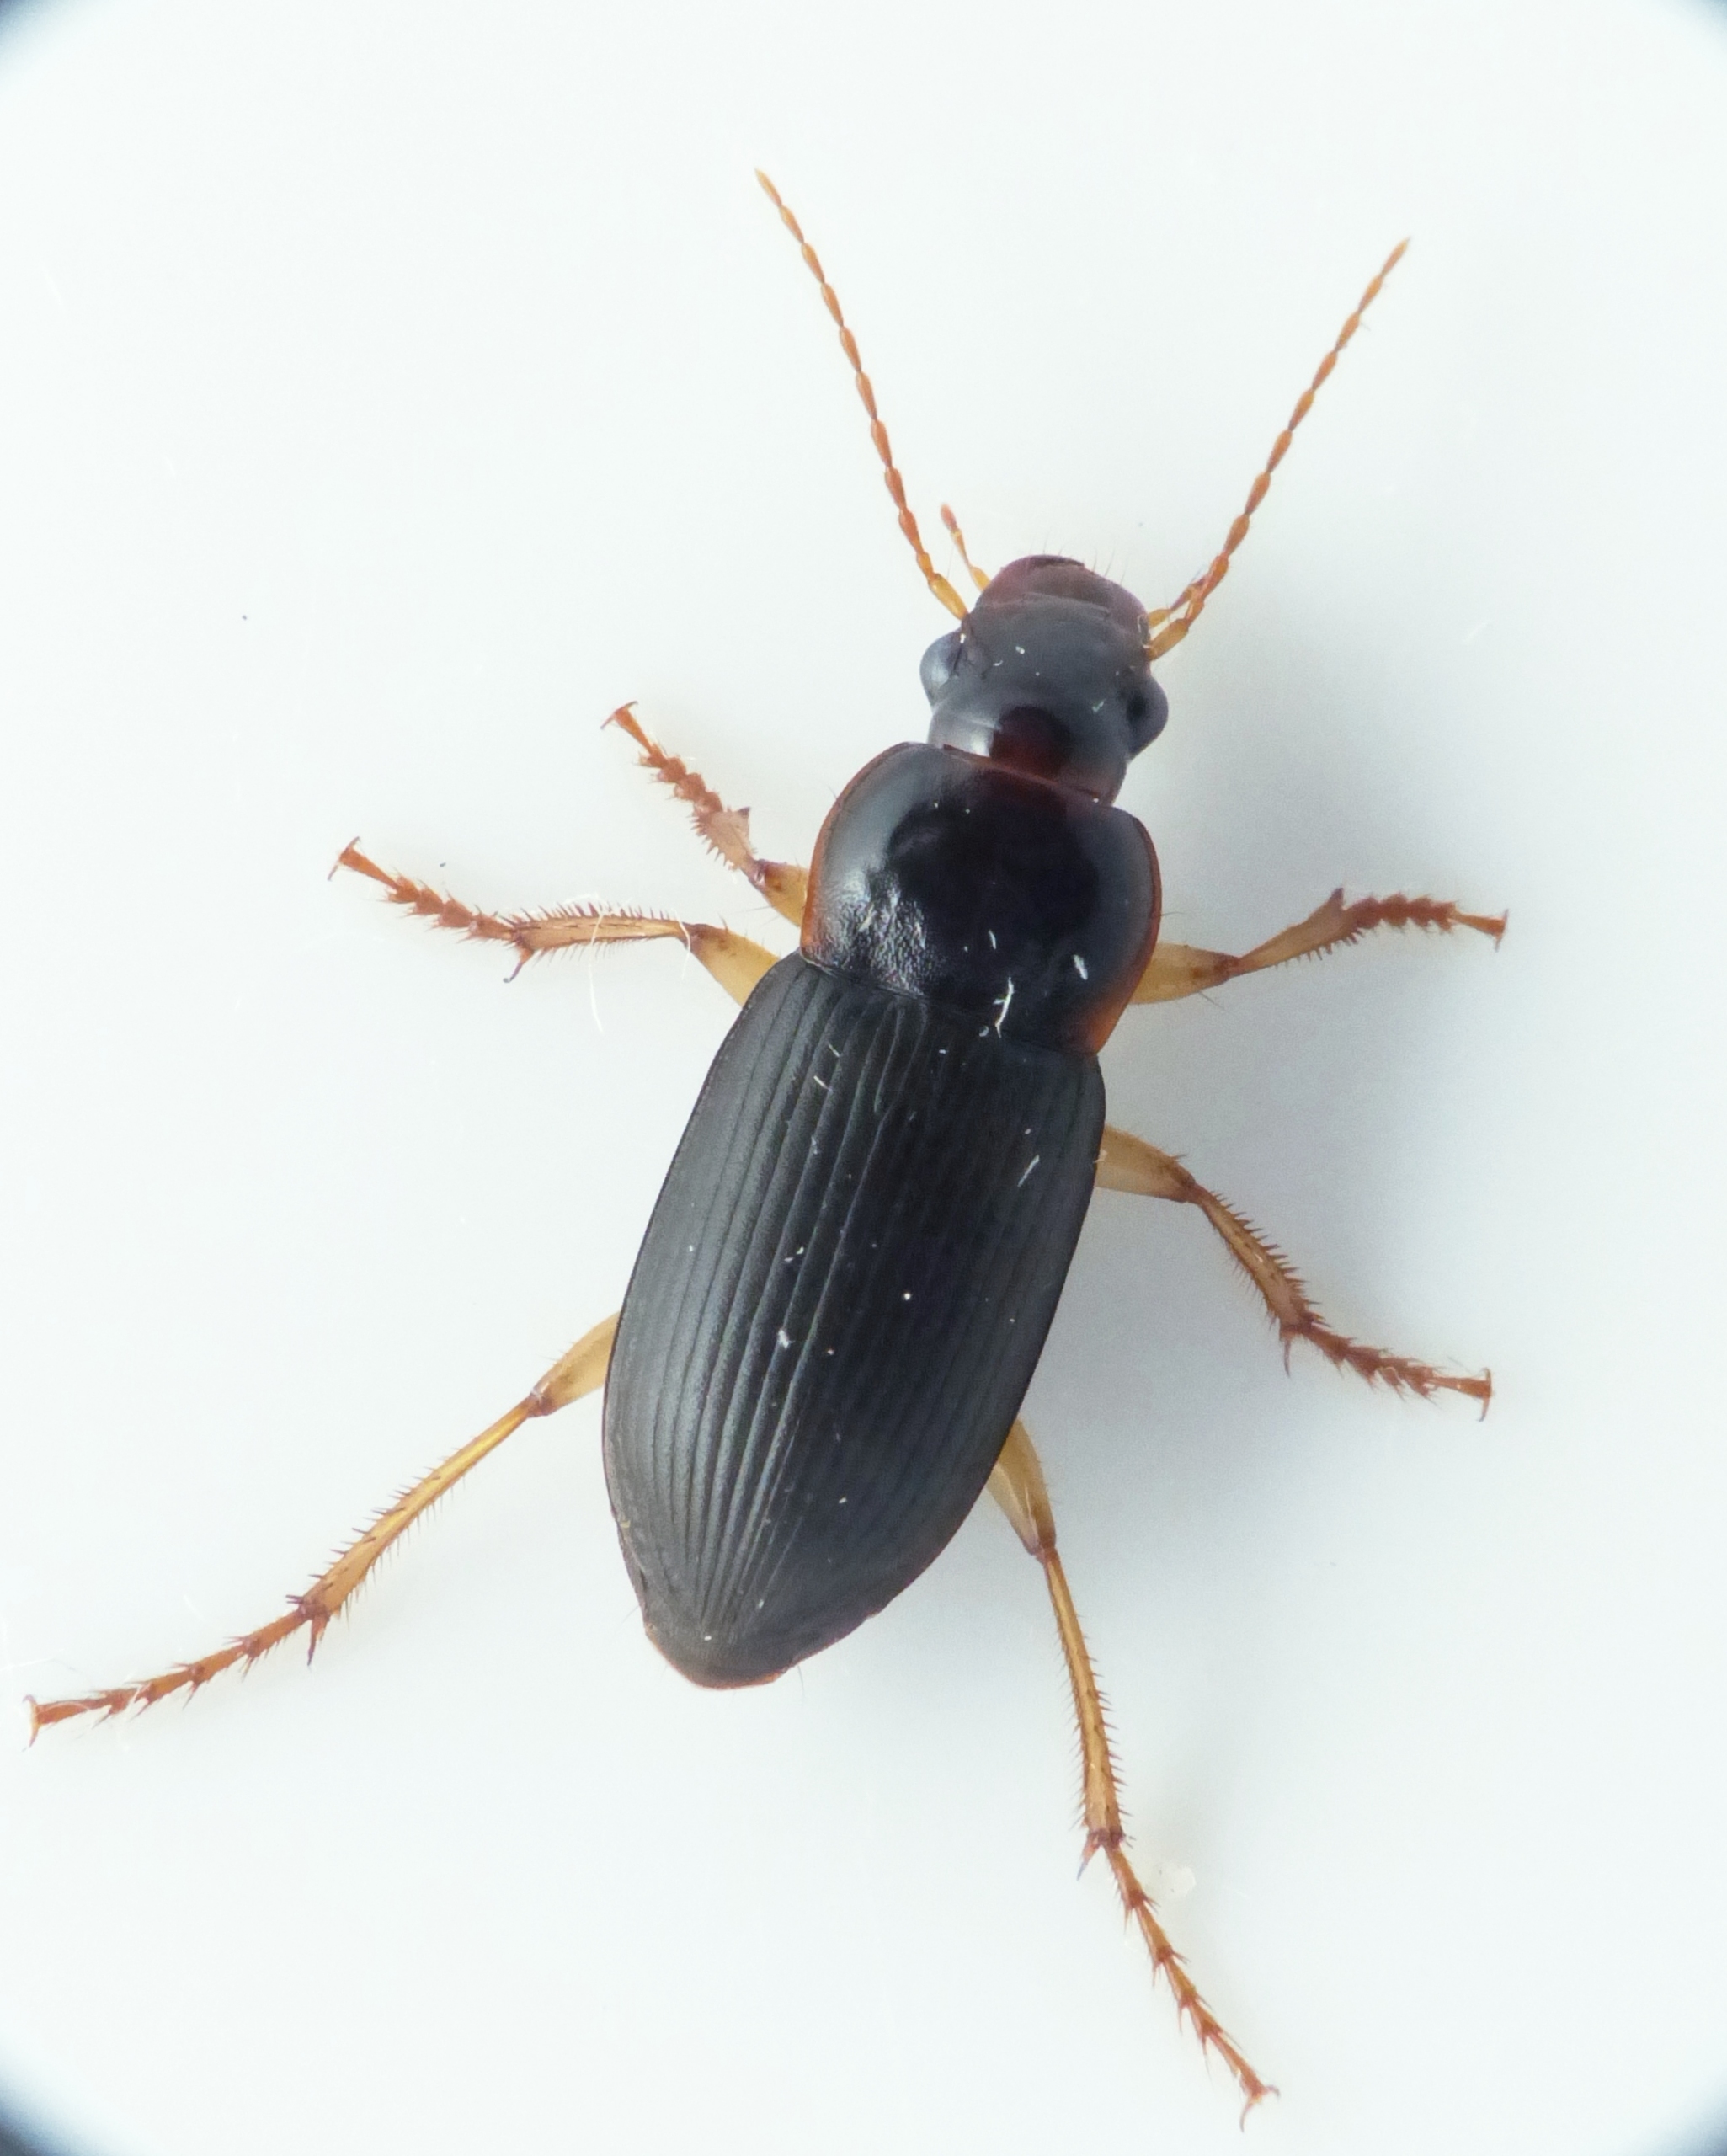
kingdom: Animalia
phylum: Arthropoda
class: Insecta
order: Coleoptera
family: Carabidae
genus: Harpalus
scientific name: Harpalus griseus
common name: Grålig markløber
